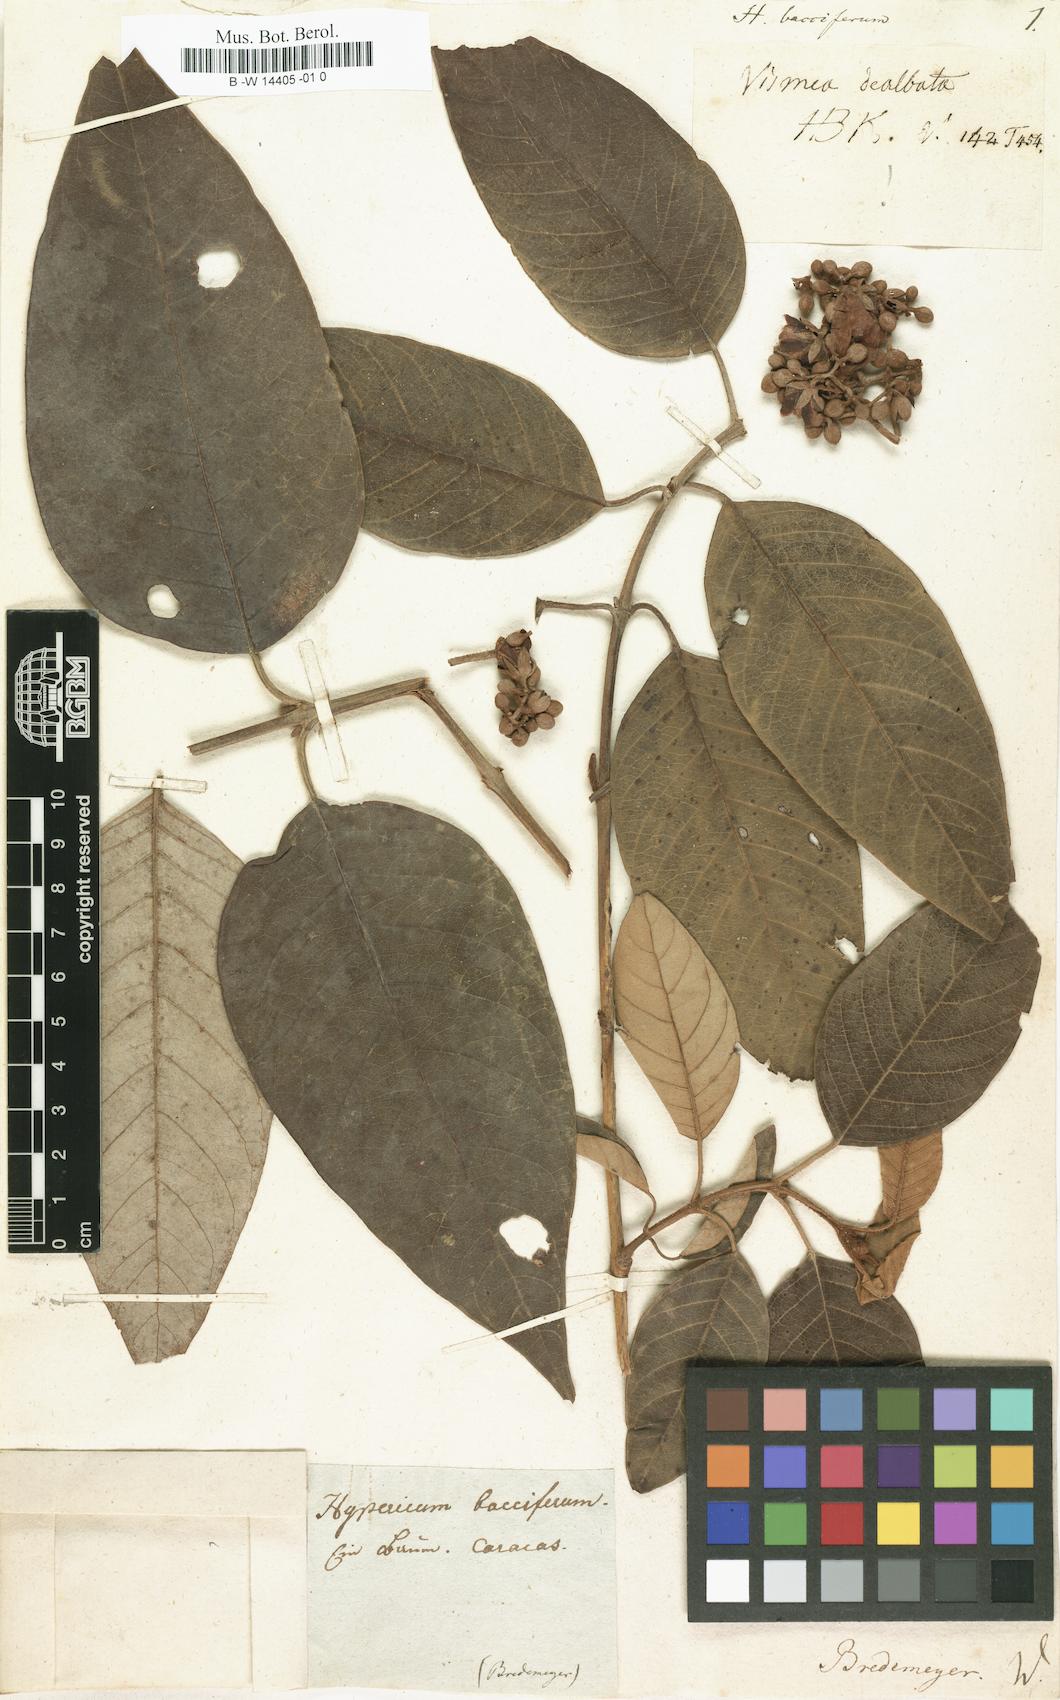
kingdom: Plantae
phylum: Tracheophyta
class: Magnoliopsida
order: Malpighiales
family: Hypericaceae
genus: Hypericum
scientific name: Hypericum bacciferum
